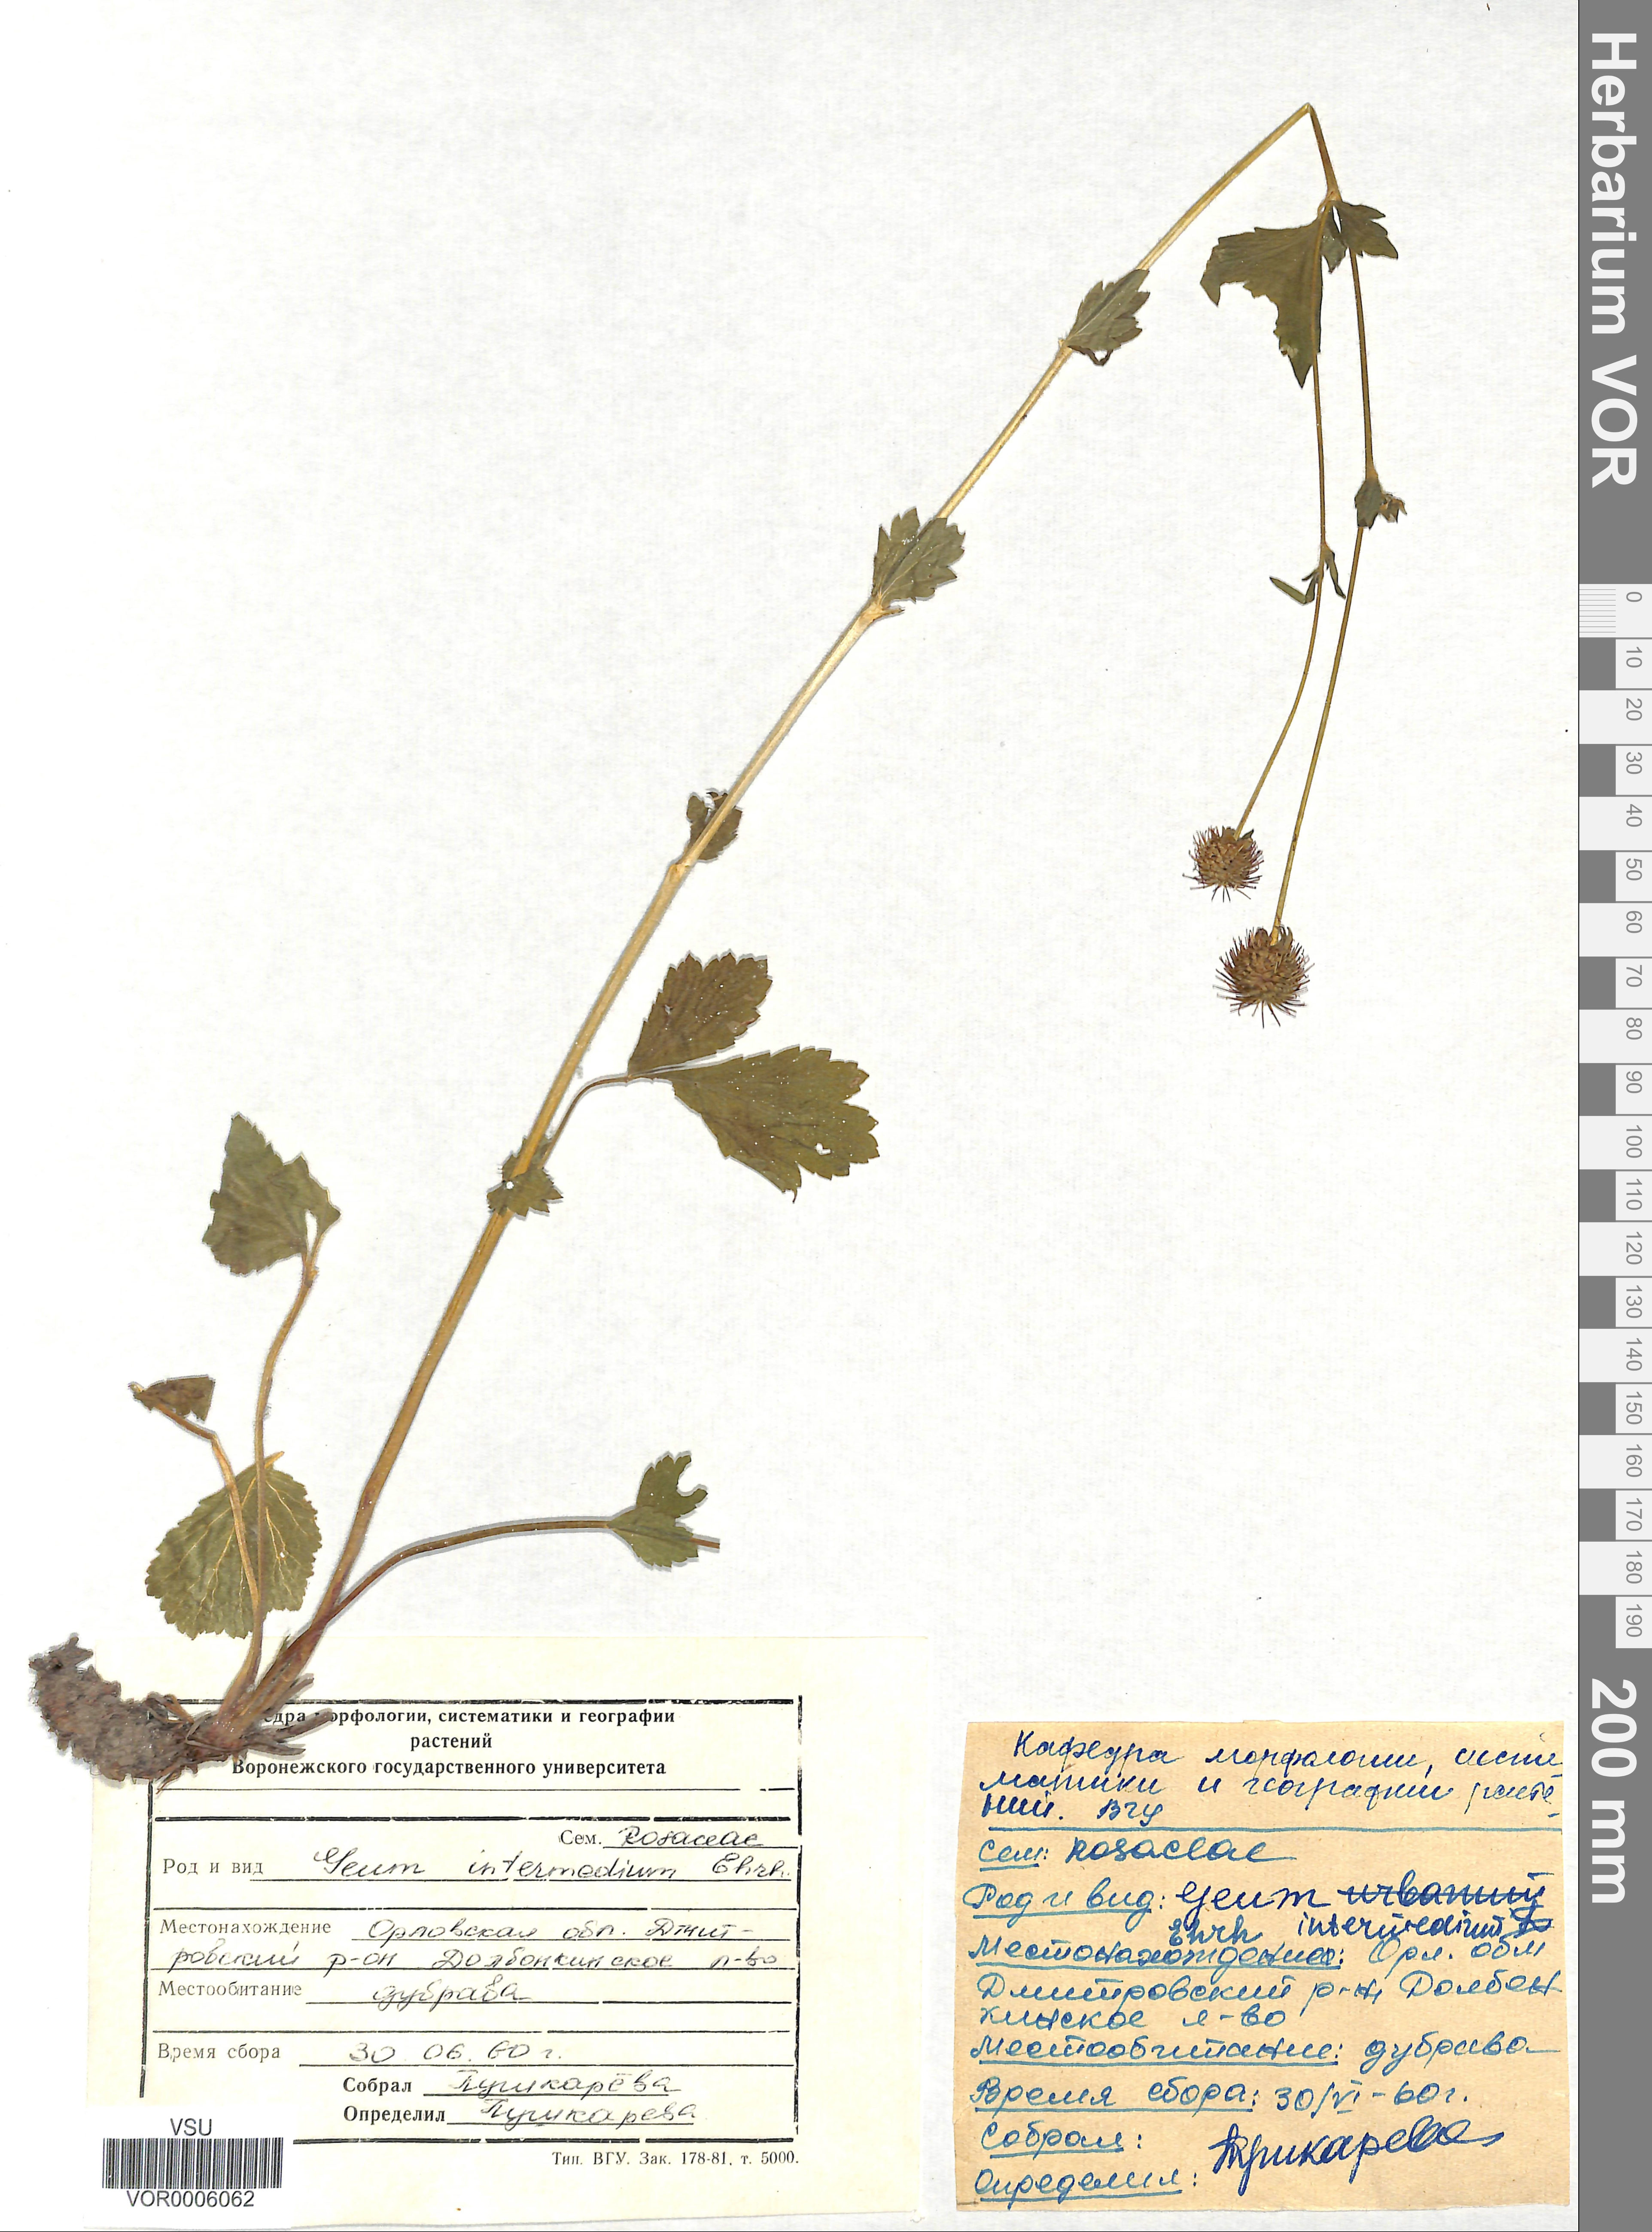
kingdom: Plantae
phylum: Tracheophyta
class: Magnoliopsida
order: Rosales
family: Rosaceae
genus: Geum
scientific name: Geum intermedium
